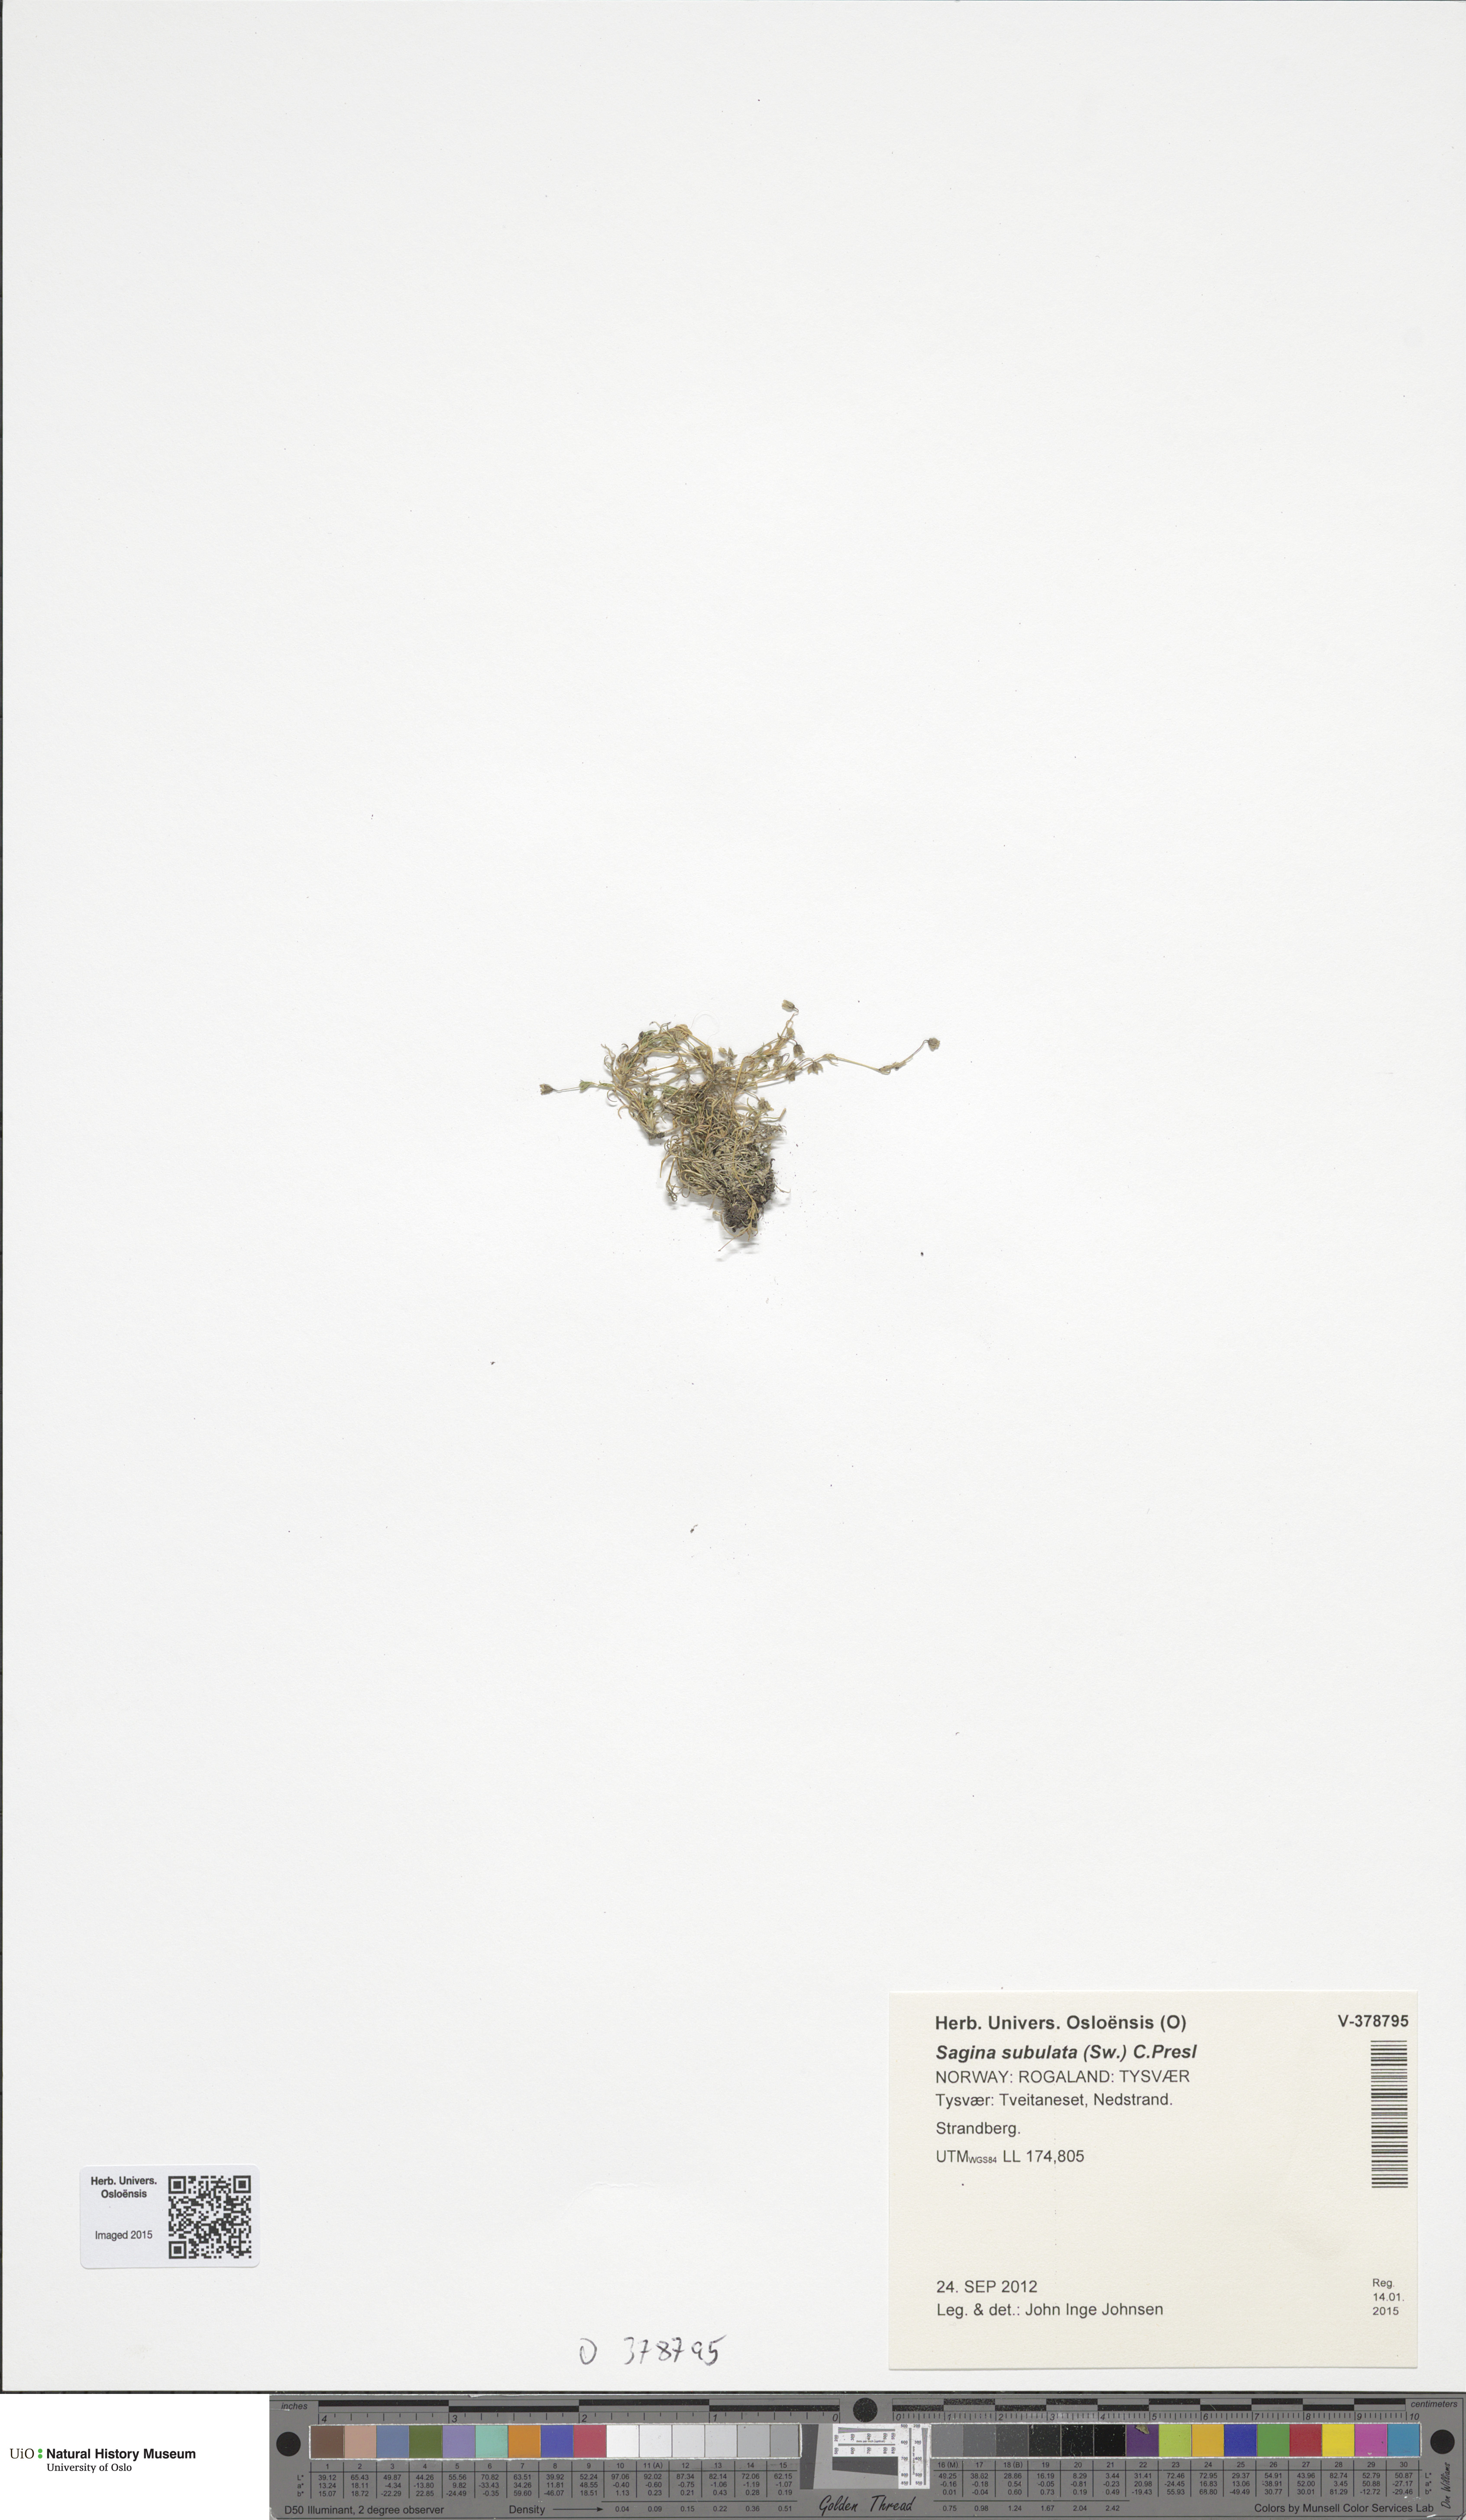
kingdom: Plantae
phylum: Tracheophyta
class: Magnoliopsida
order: Caryophyllales
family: Caryophyllaceae
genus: Sagina
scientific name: Sagina alexandrae
